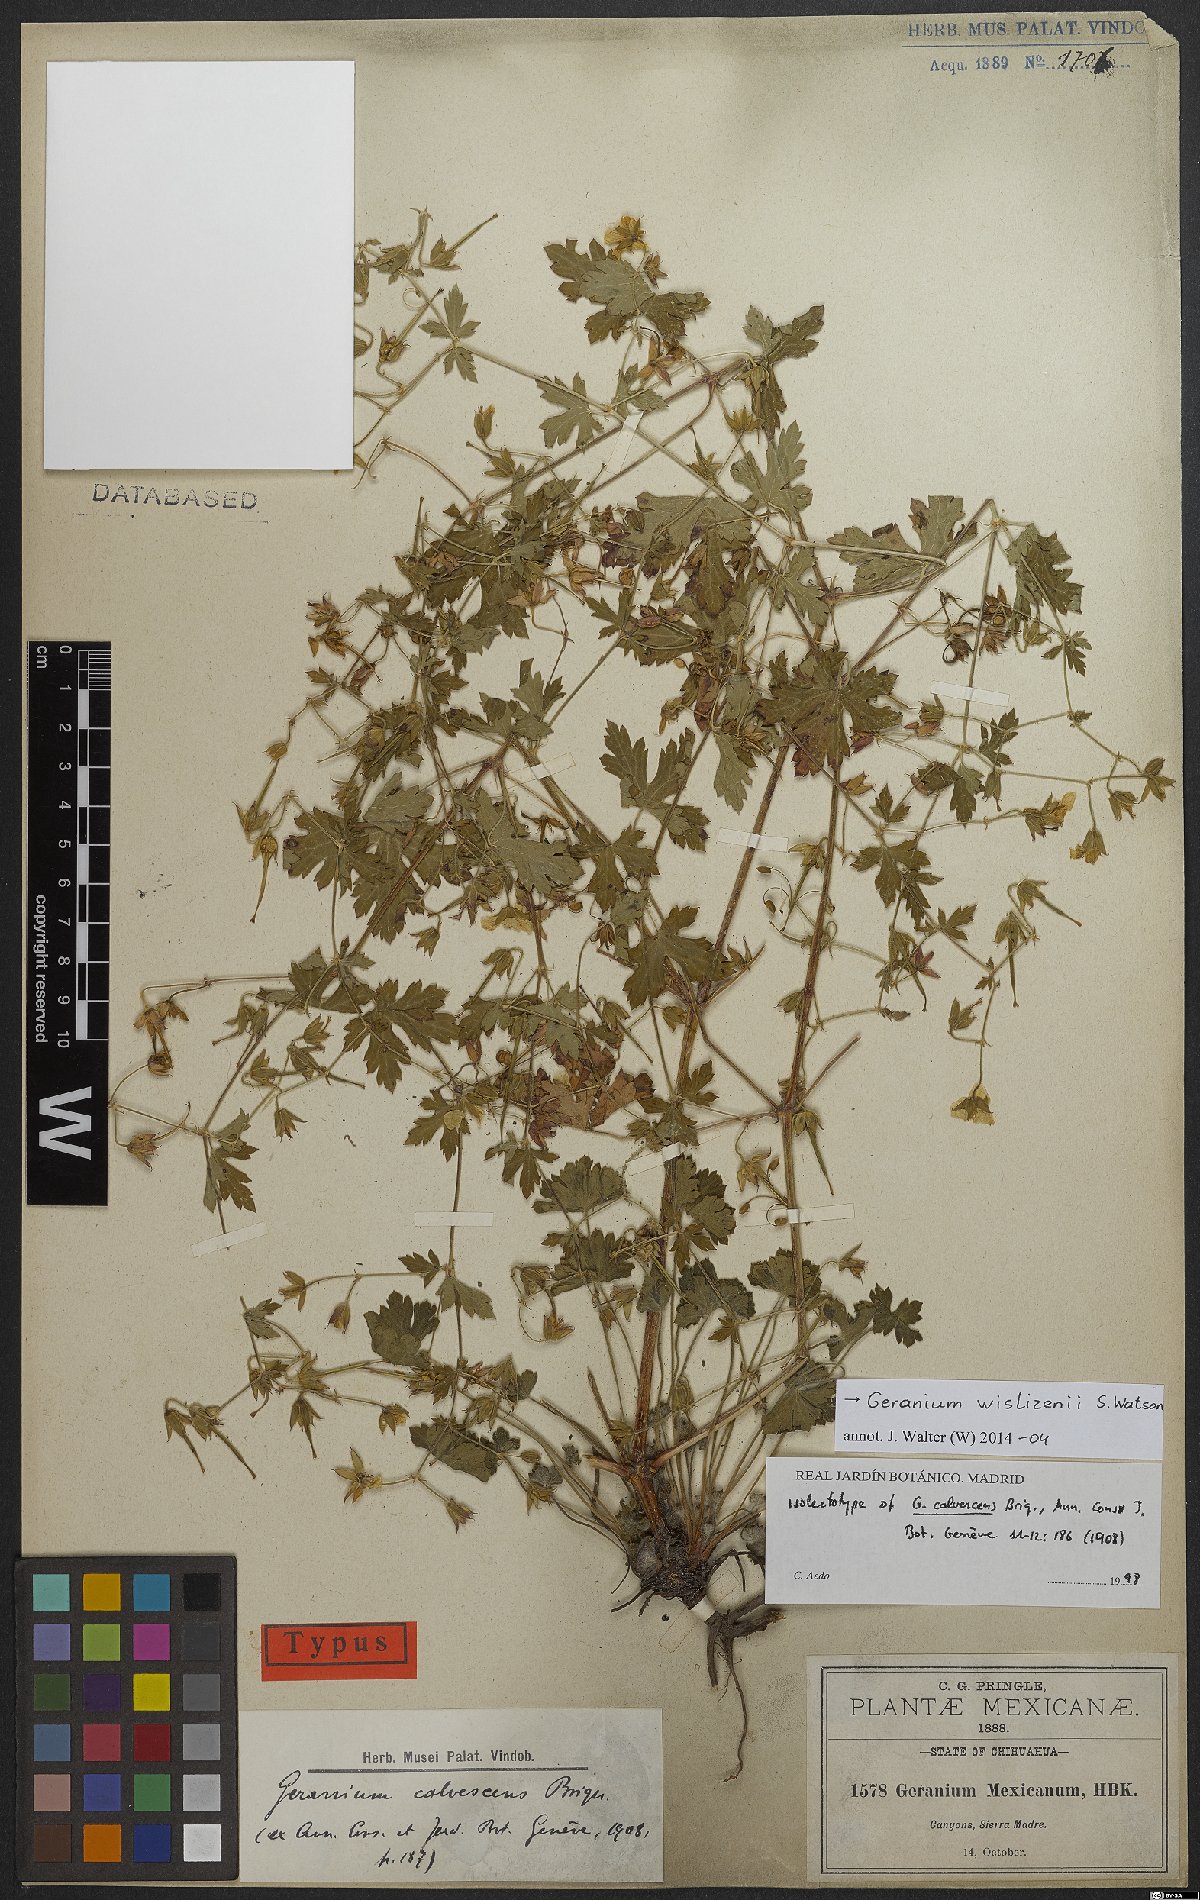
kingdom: Plantae
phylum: Tracheophyta
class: Magnoliopsida
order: Geraniales
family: Geraniaceae
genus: Geranium
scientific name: Geranium wislizeni
